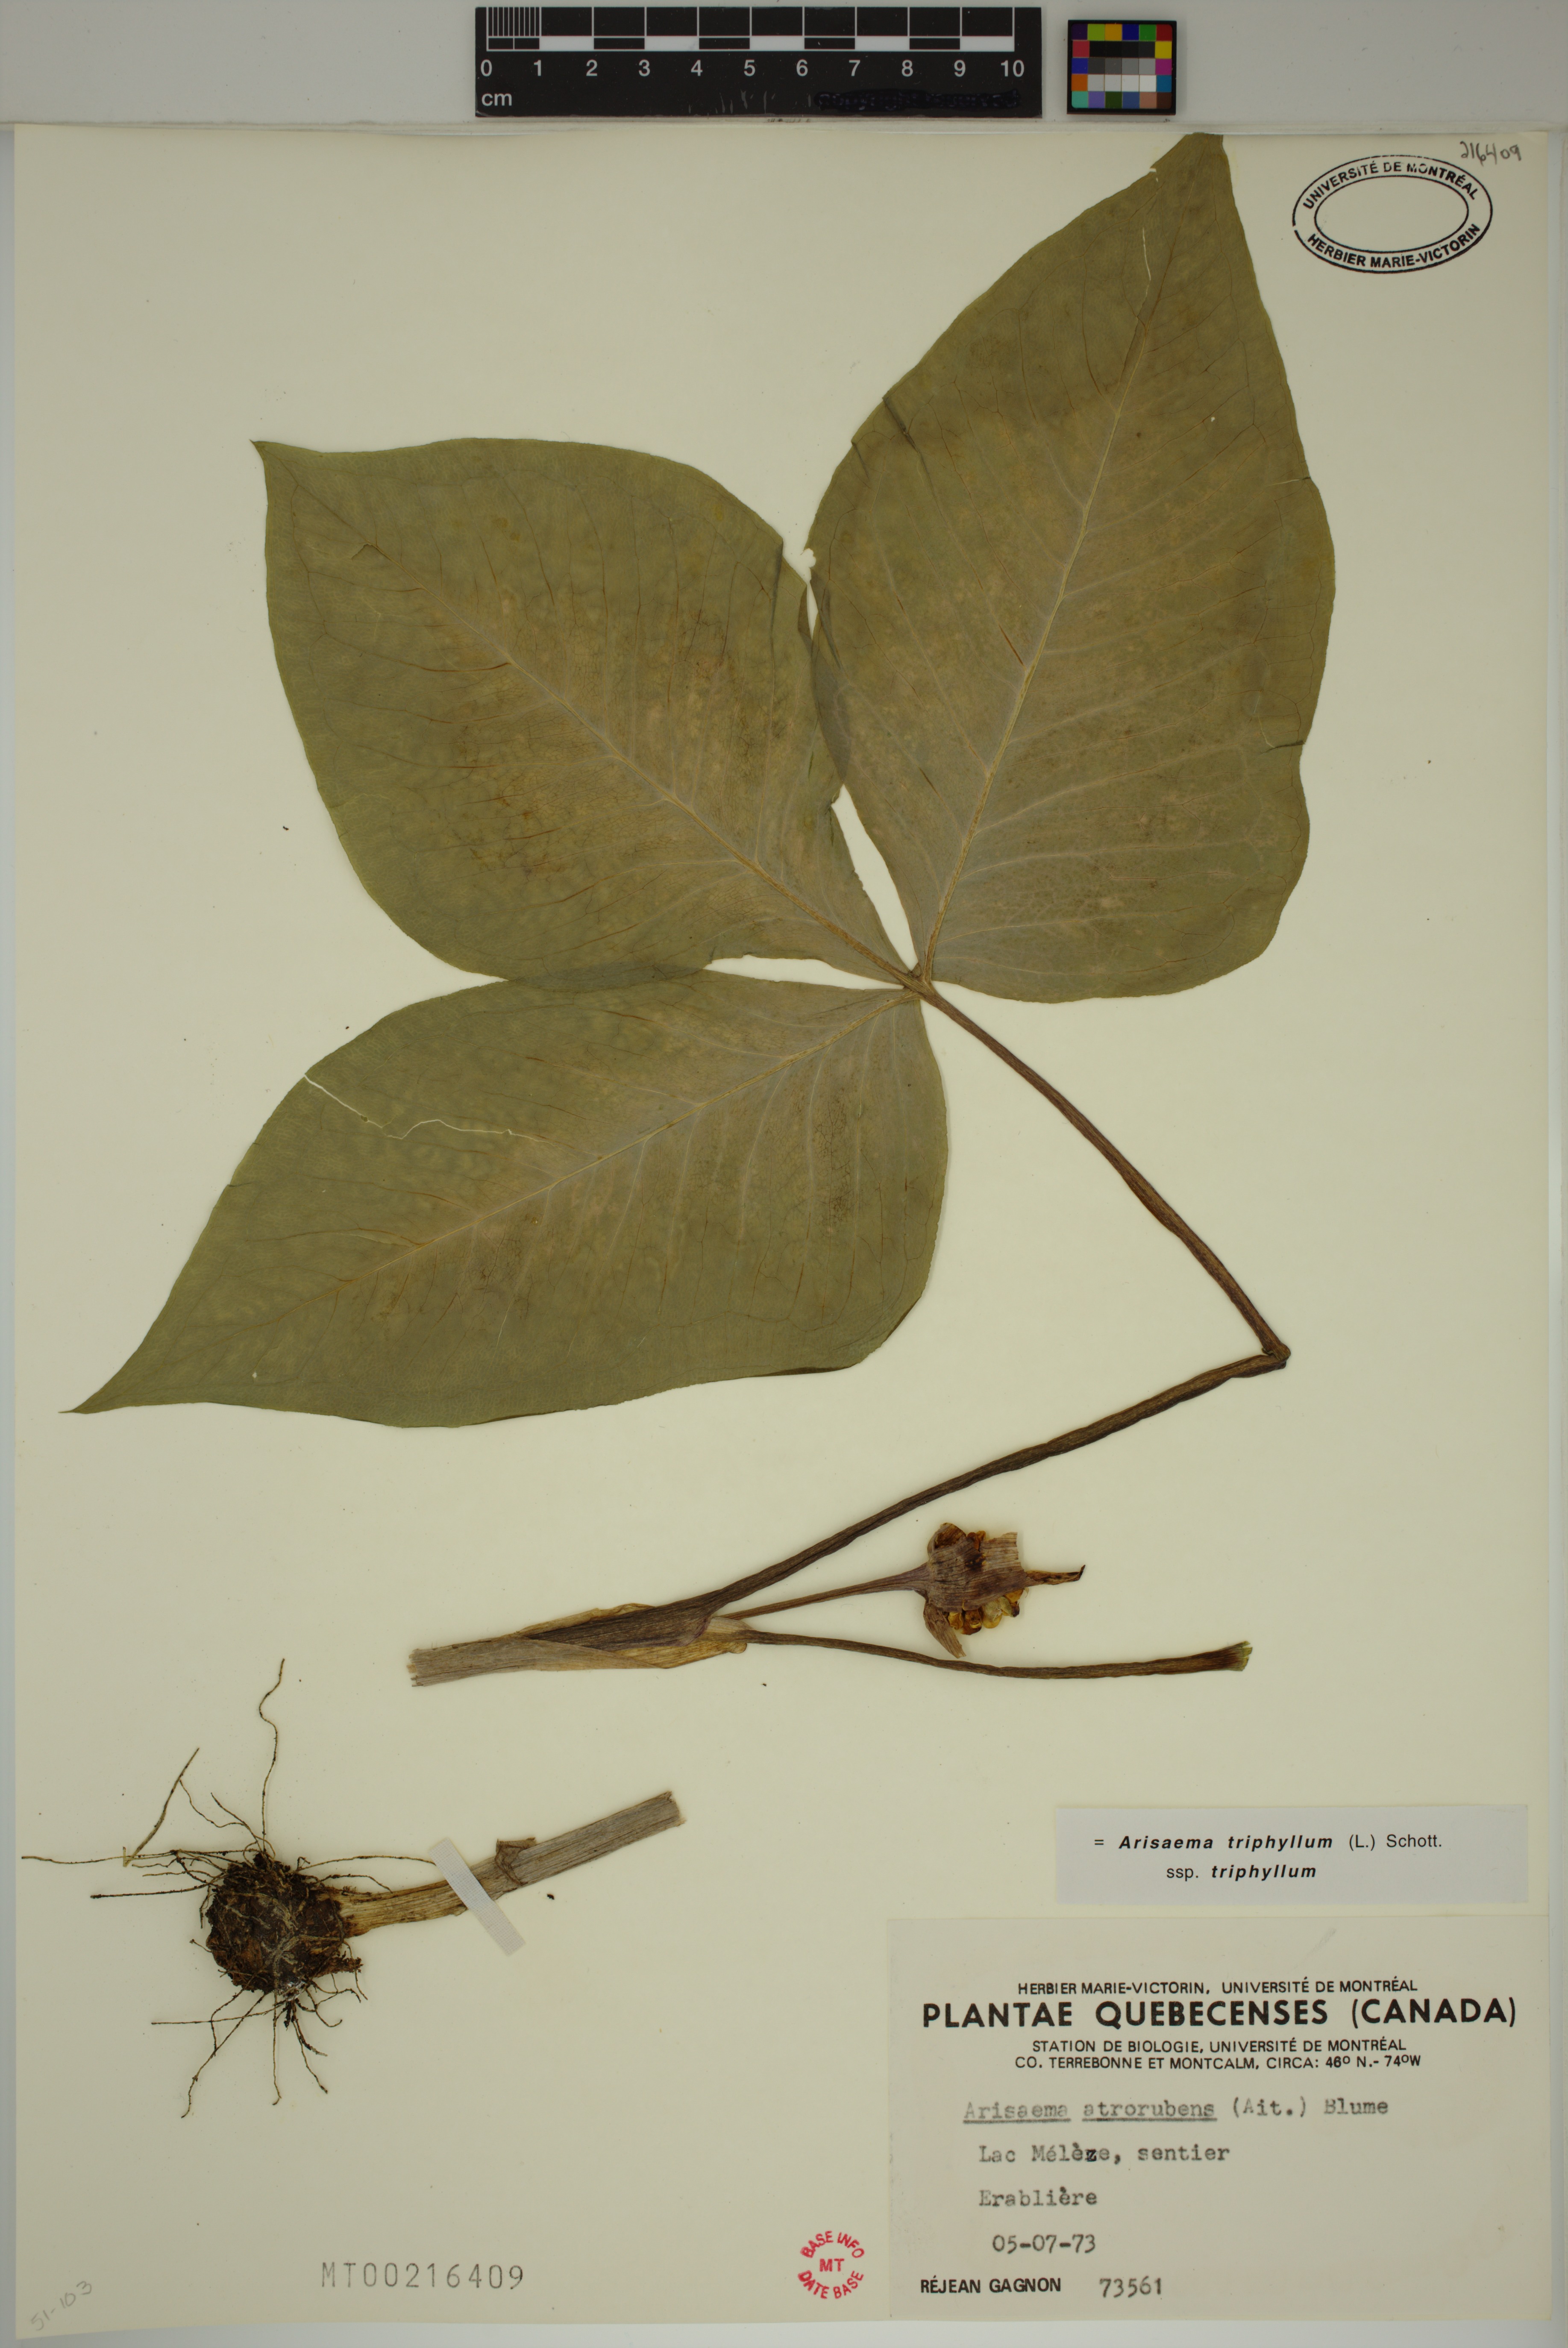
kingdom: Plantae
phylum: Tracheophyta
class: Liliopsida
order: Alismatales
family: Araceae
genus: Arisaema
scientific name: Arisaema triphyllum
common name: Jack-in-the-pulpit
